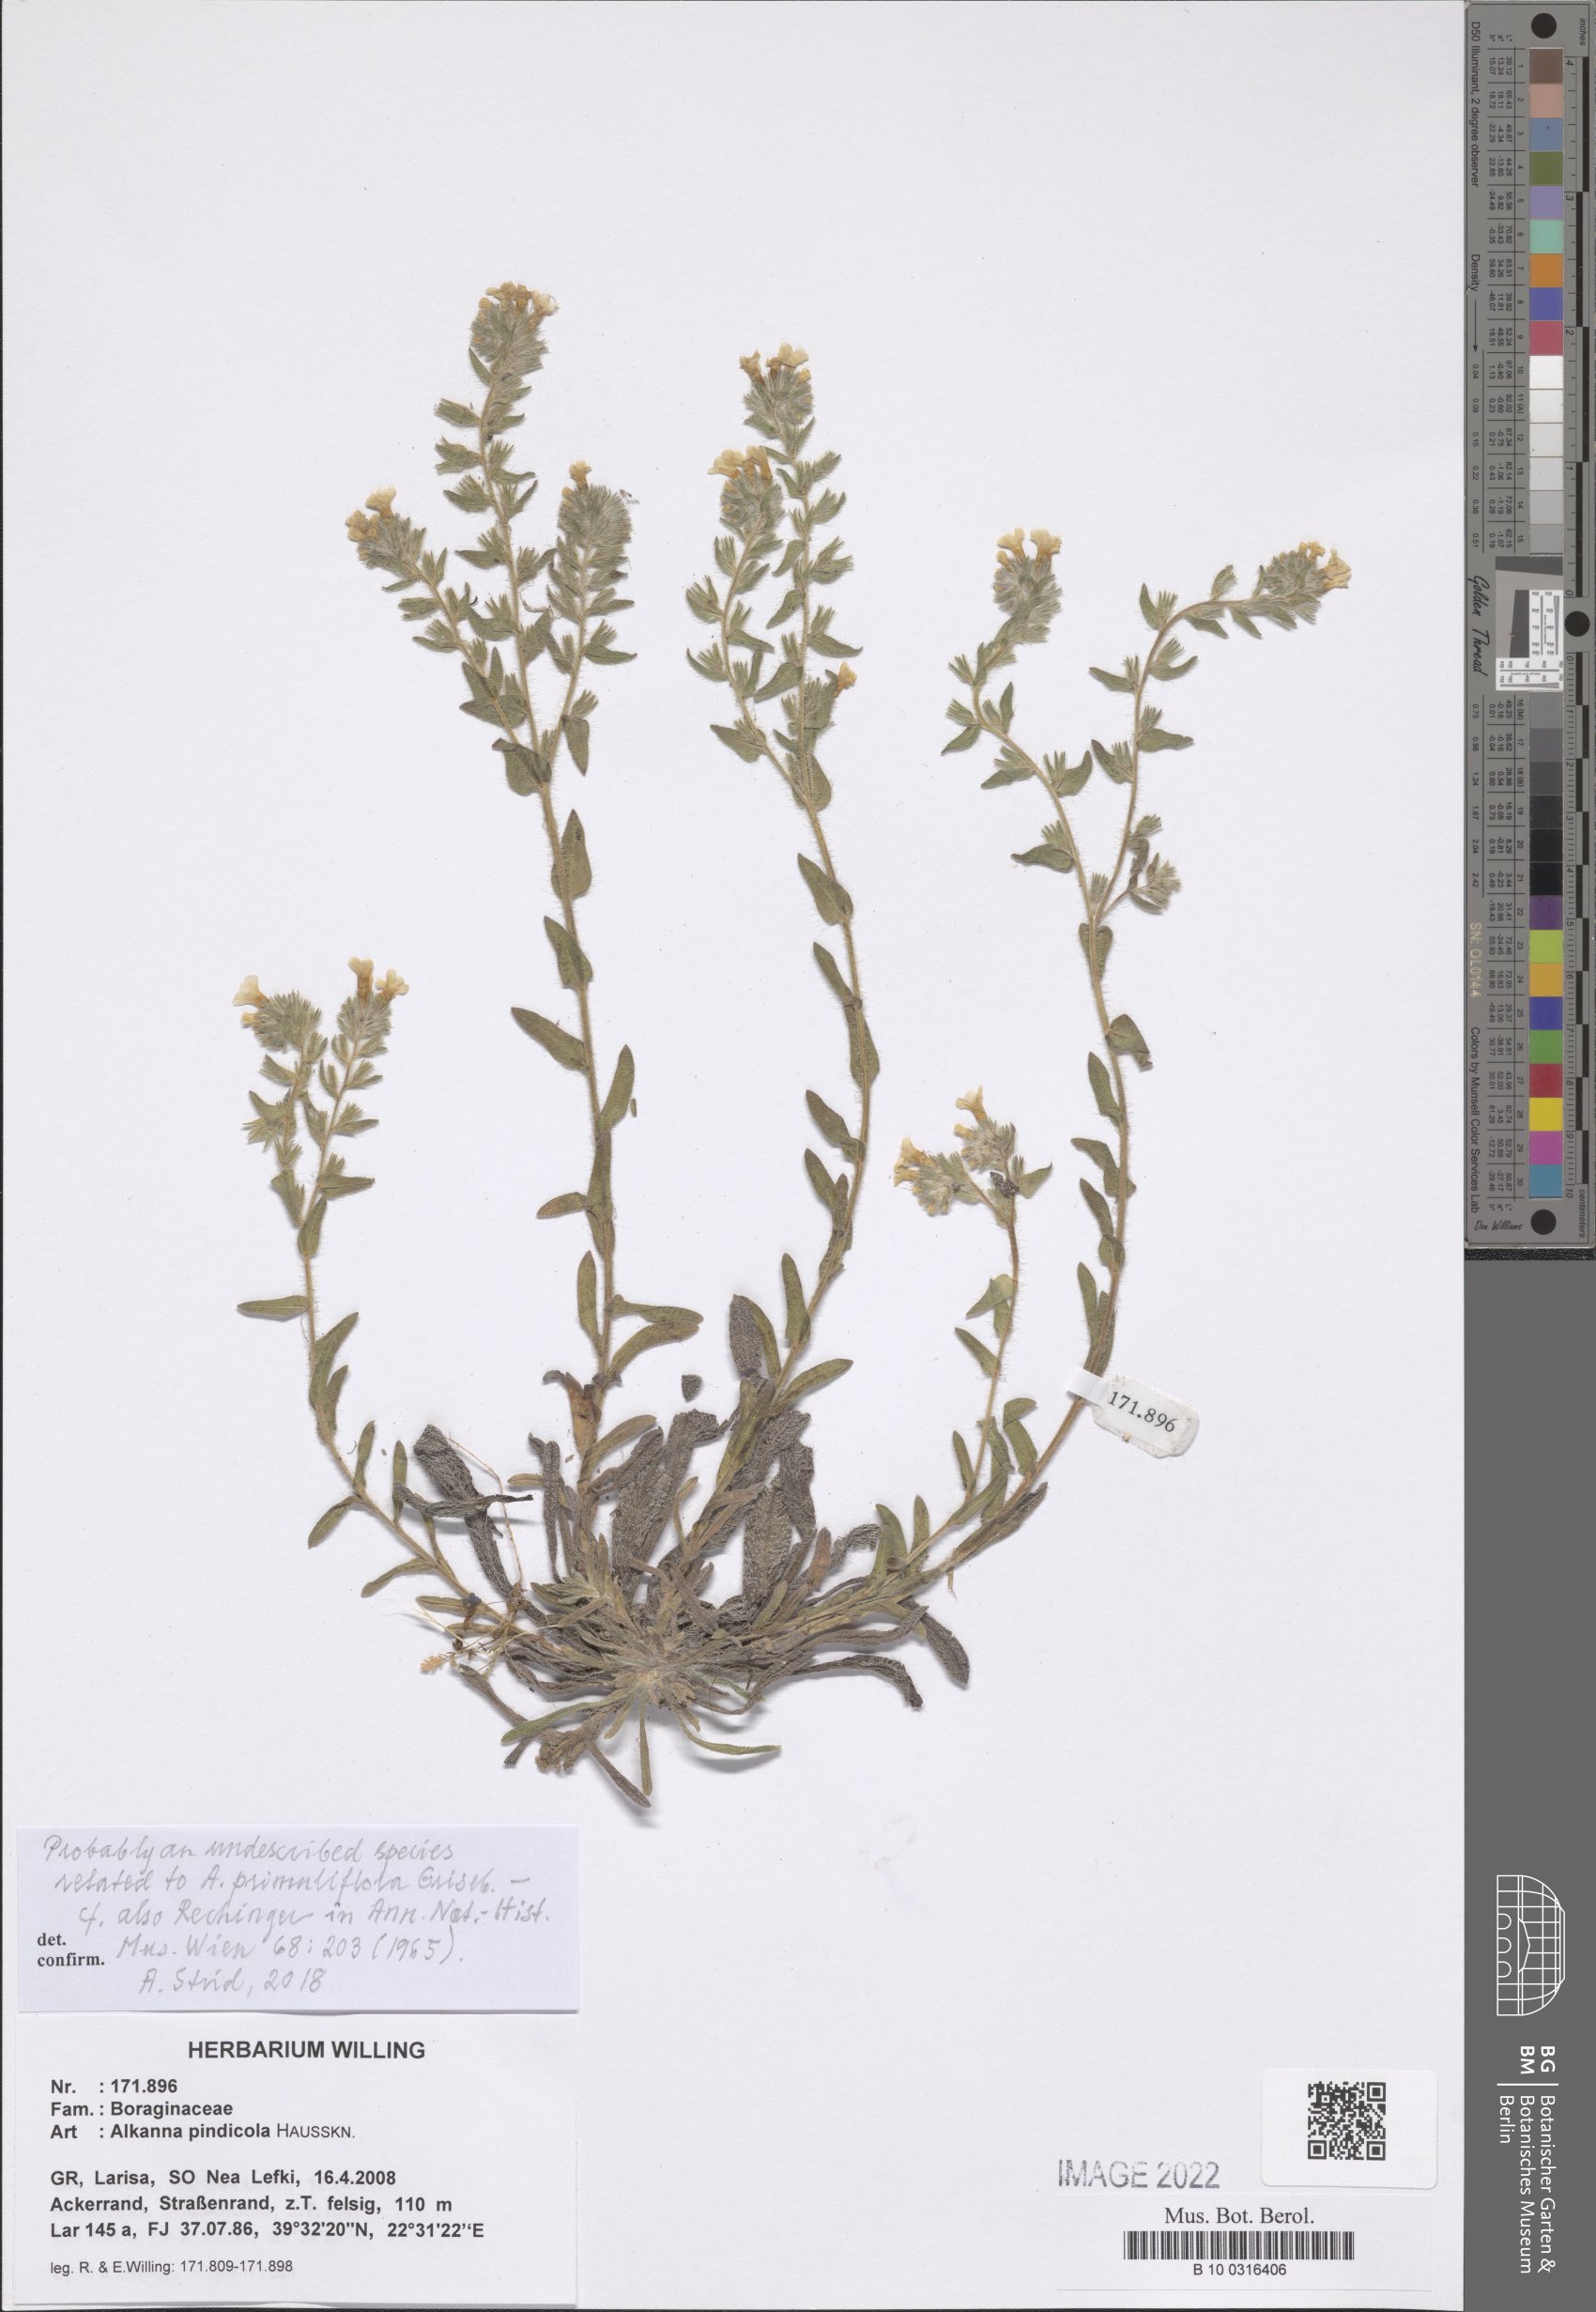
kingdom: Plantae
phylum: Tracheophyta
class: Magnoliopsida
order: Boraginales
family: Boraginaceae
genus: Alkanna
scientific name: Alkanna pindicola
